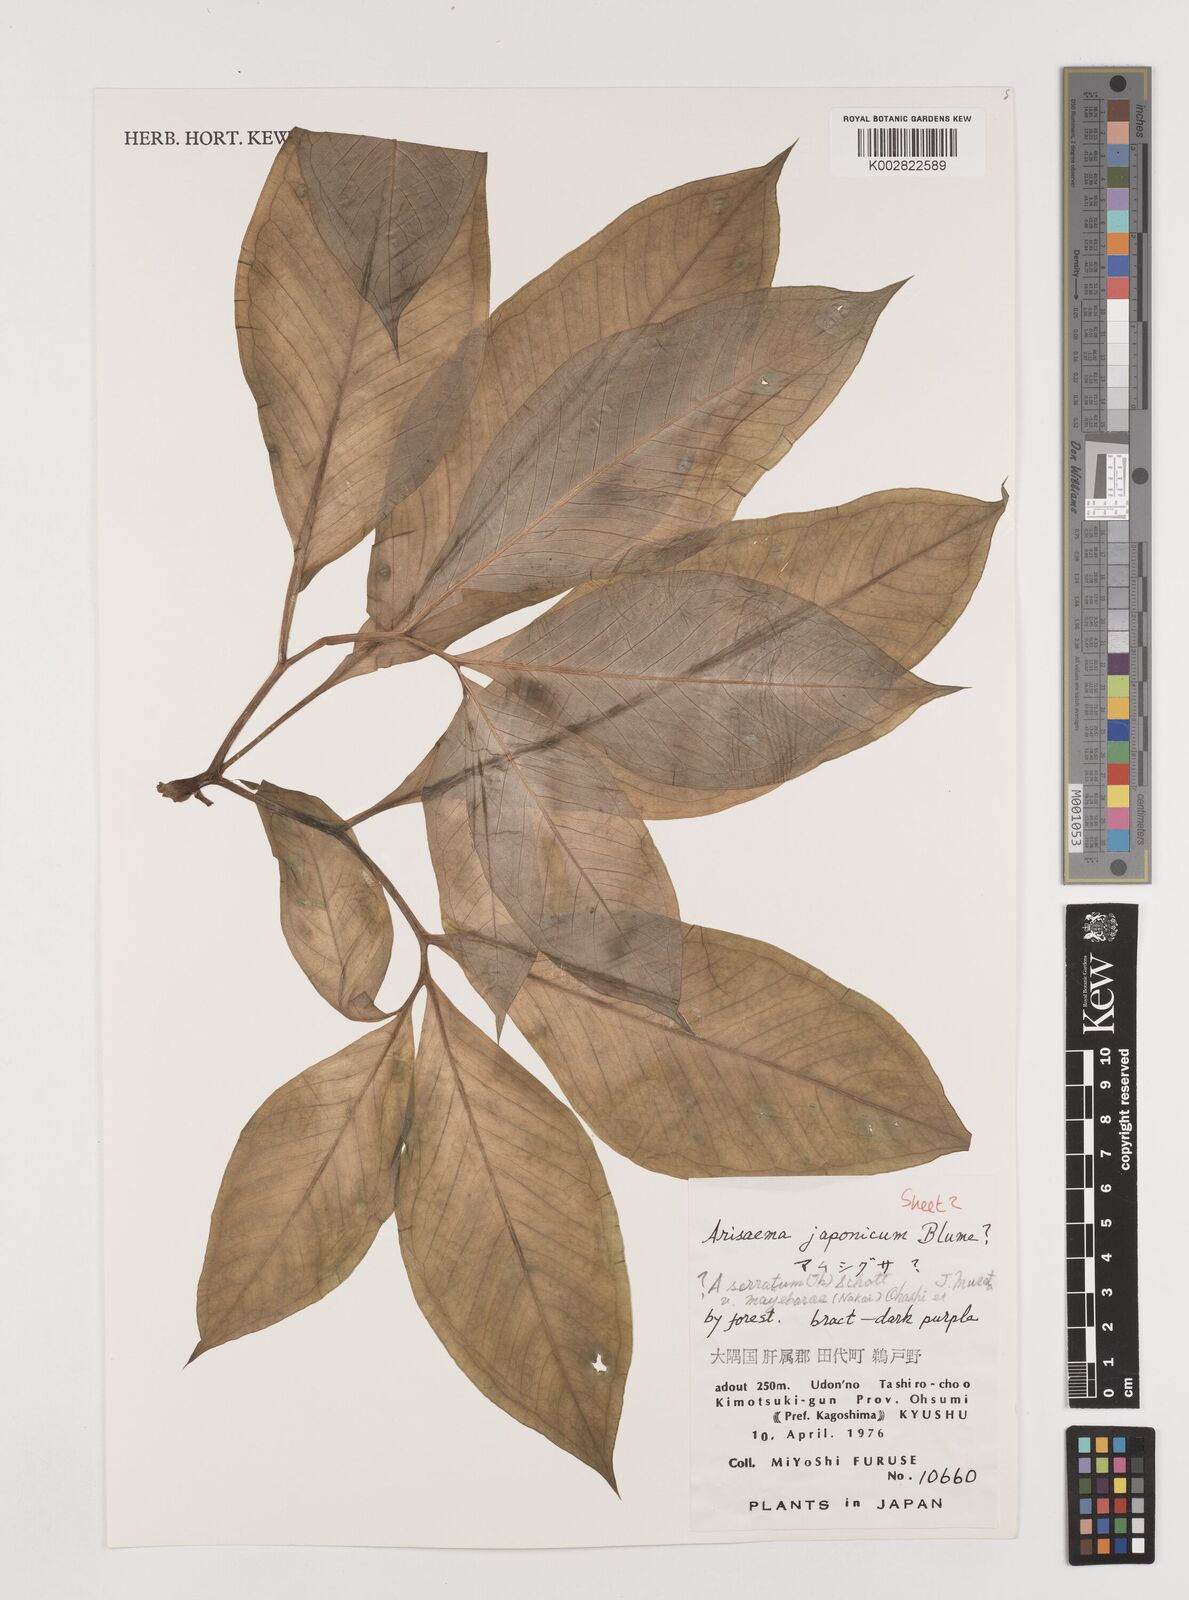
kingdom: Plantae
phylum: Tracheophyta
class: Liliopsida
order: Alismatales
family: Araceae
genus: Arisaema
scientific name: Arisaema serratum
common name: Japanese arisaema
